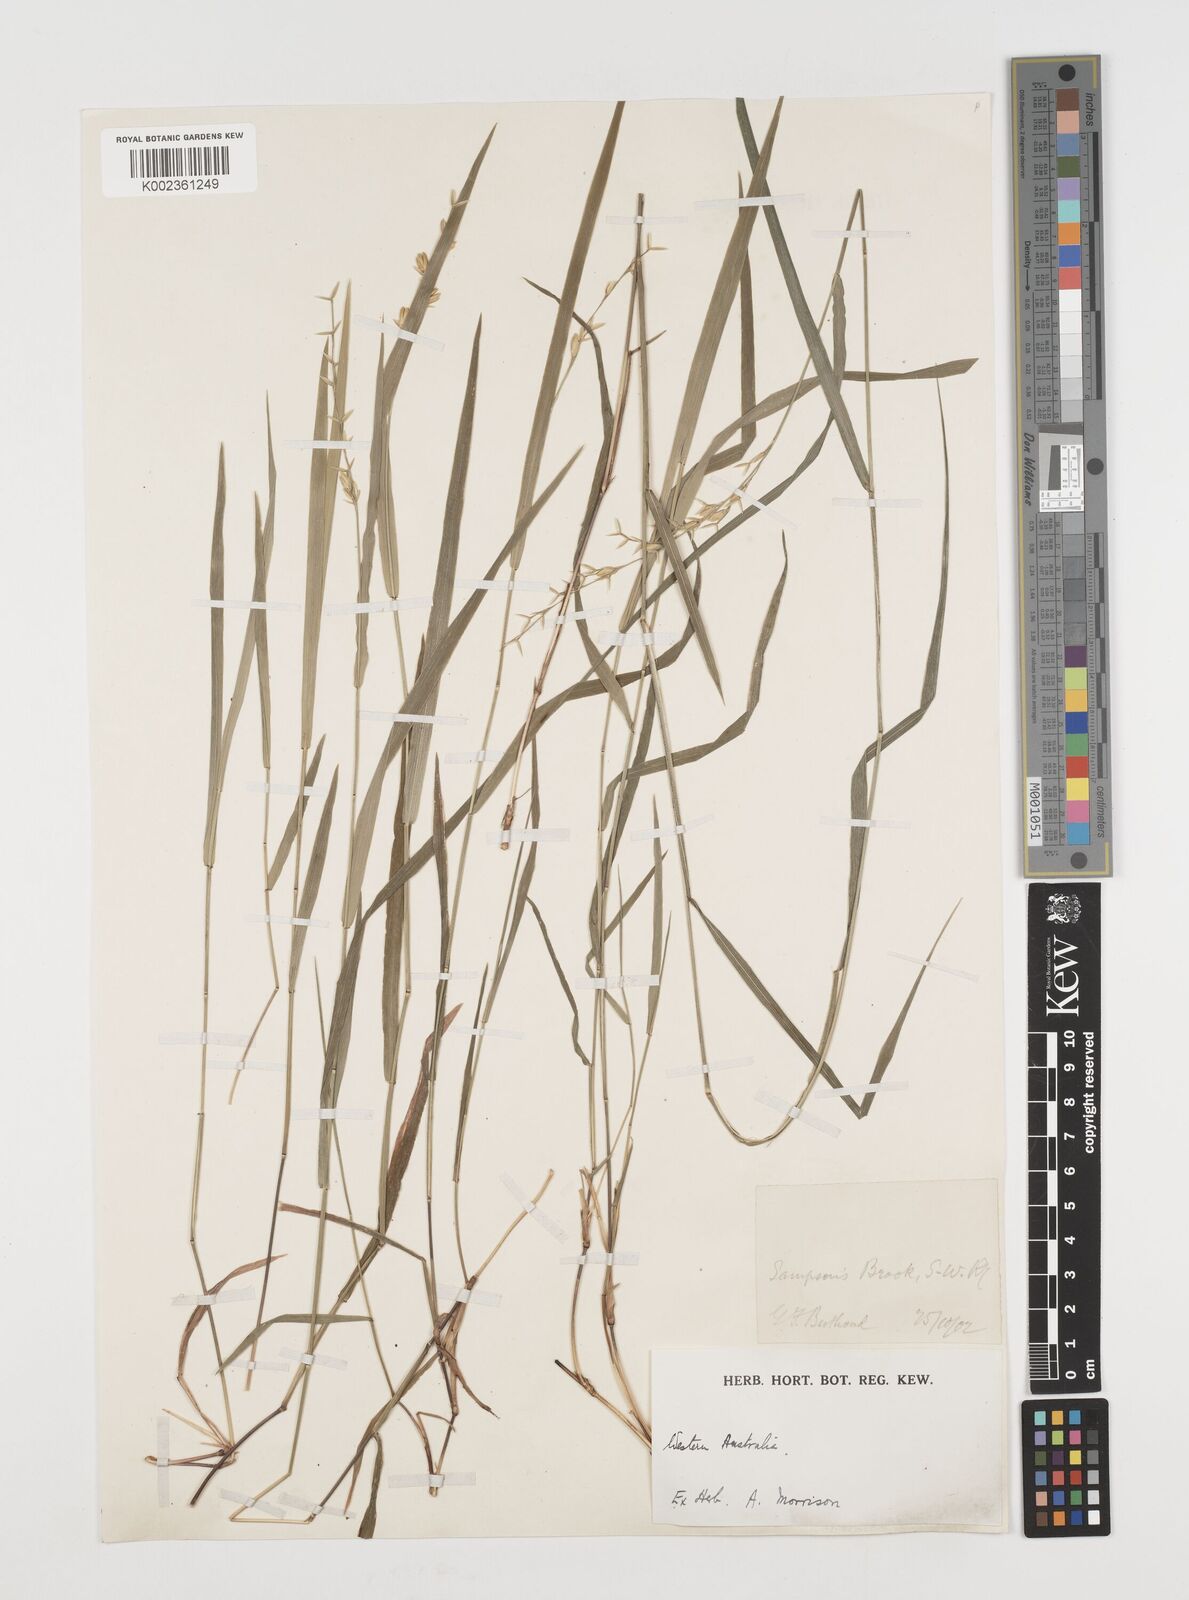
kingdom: Plantae
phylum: Tracheophyta
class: Liliopsida
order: Poales
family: Poaceae
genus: Ehrharta
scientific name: Ehrharta
